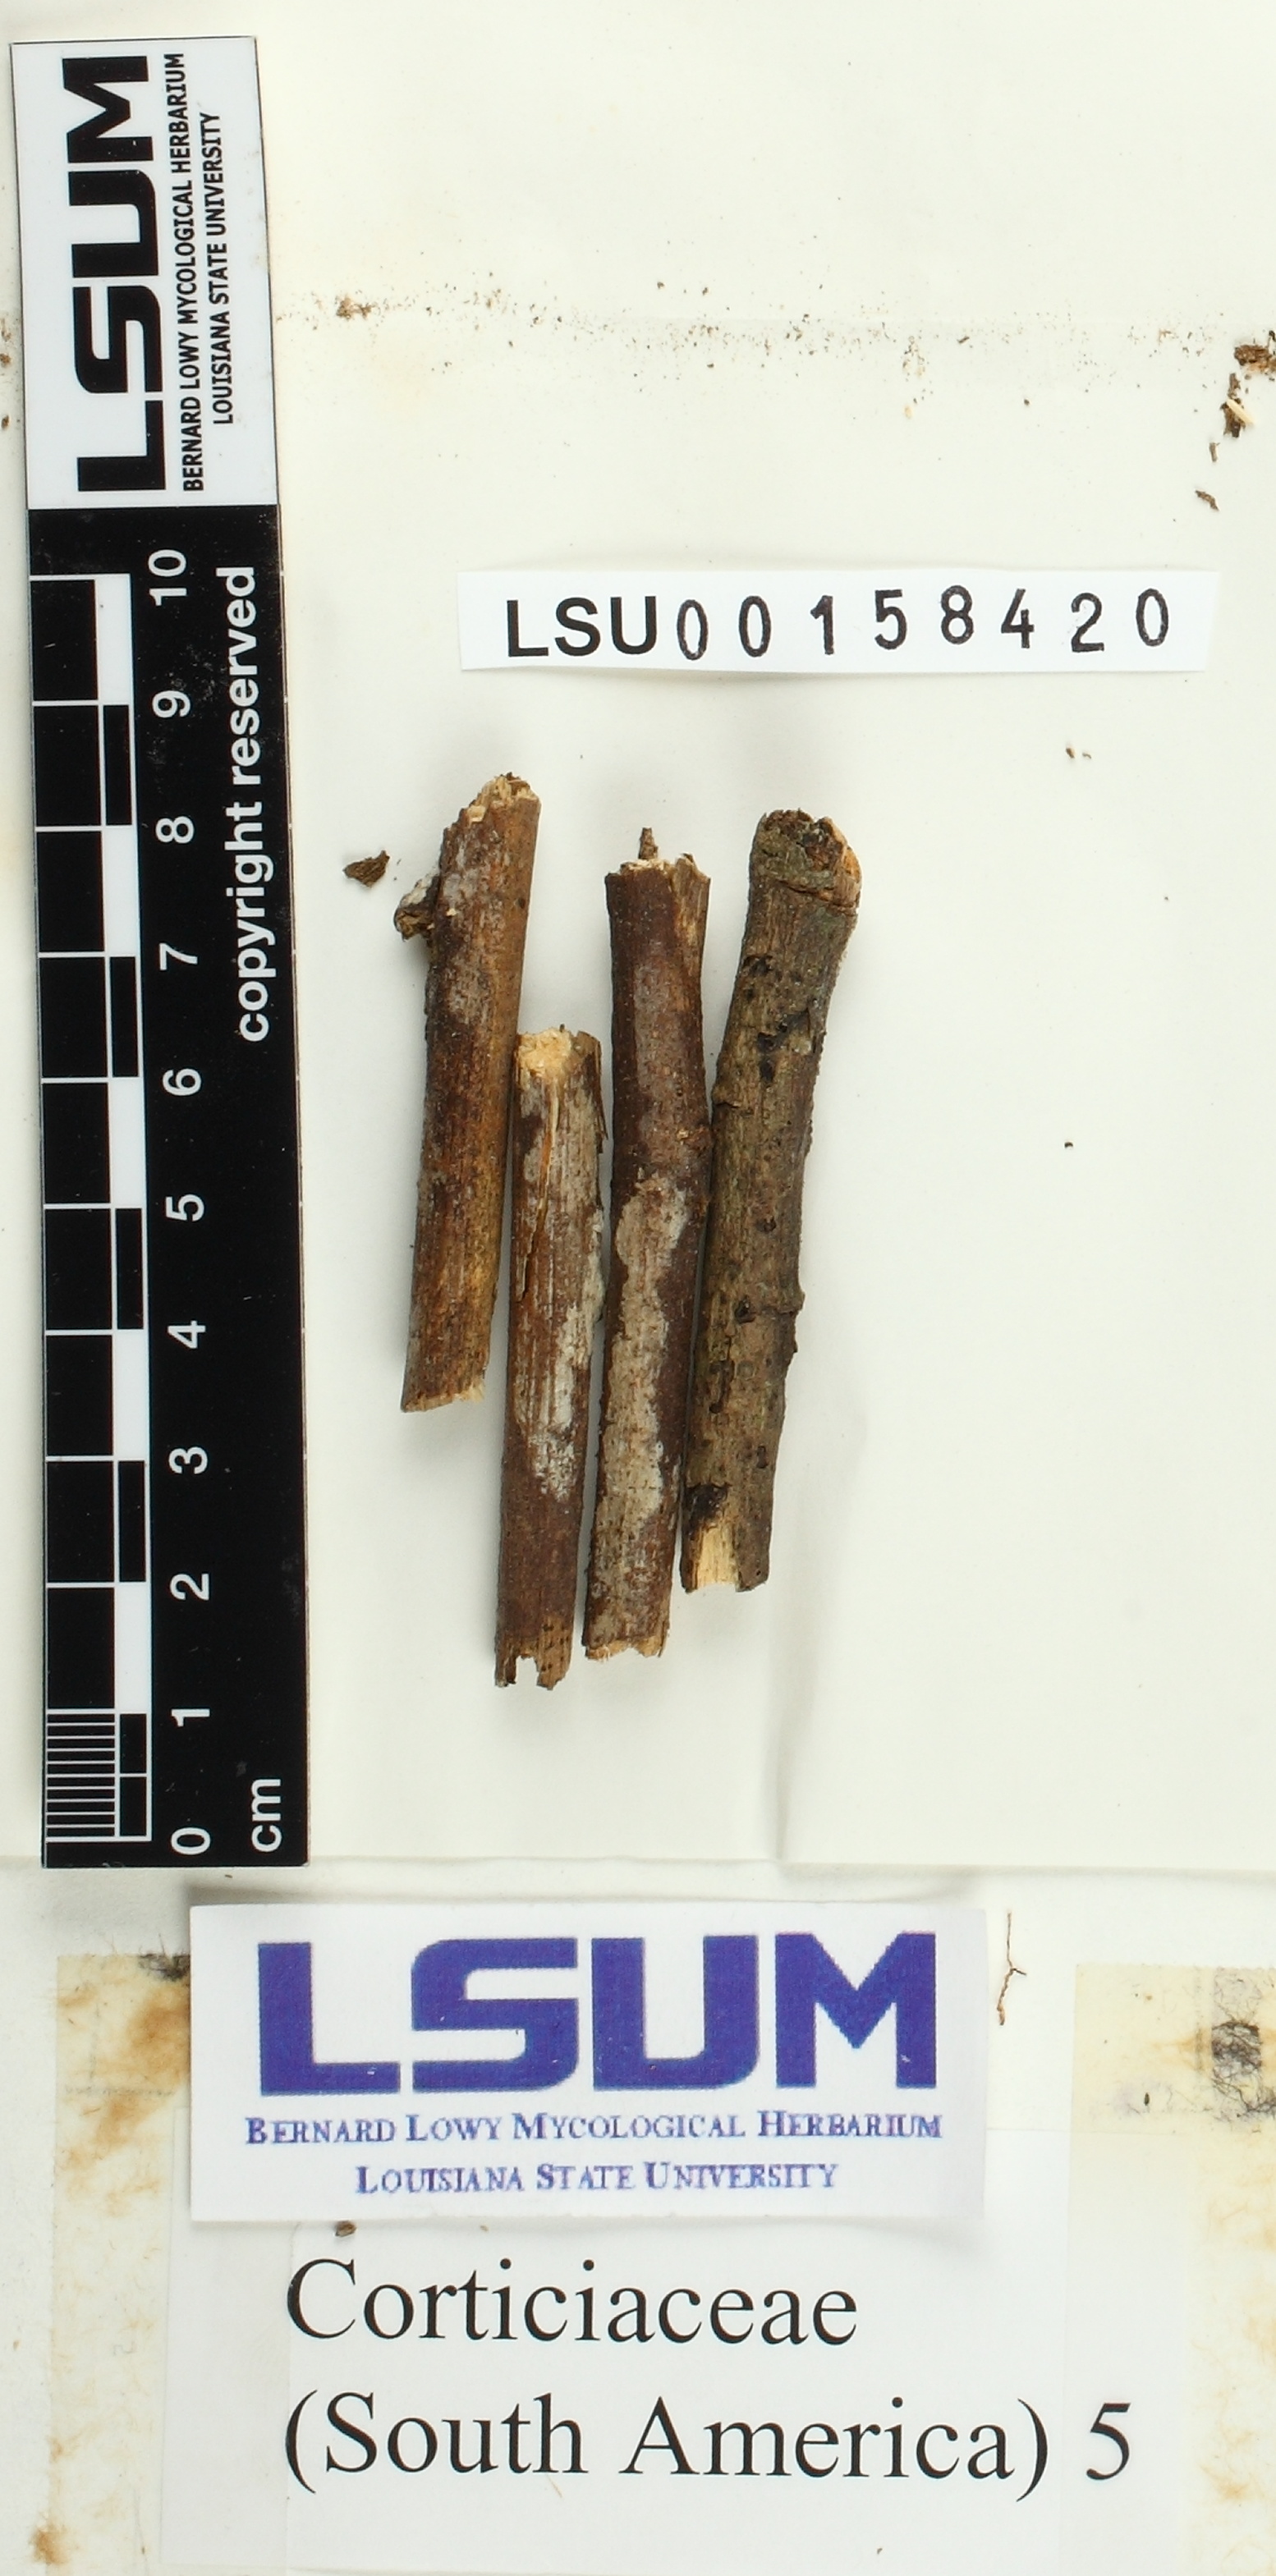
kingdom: Fungi
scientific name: Fungi
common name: Fungi
